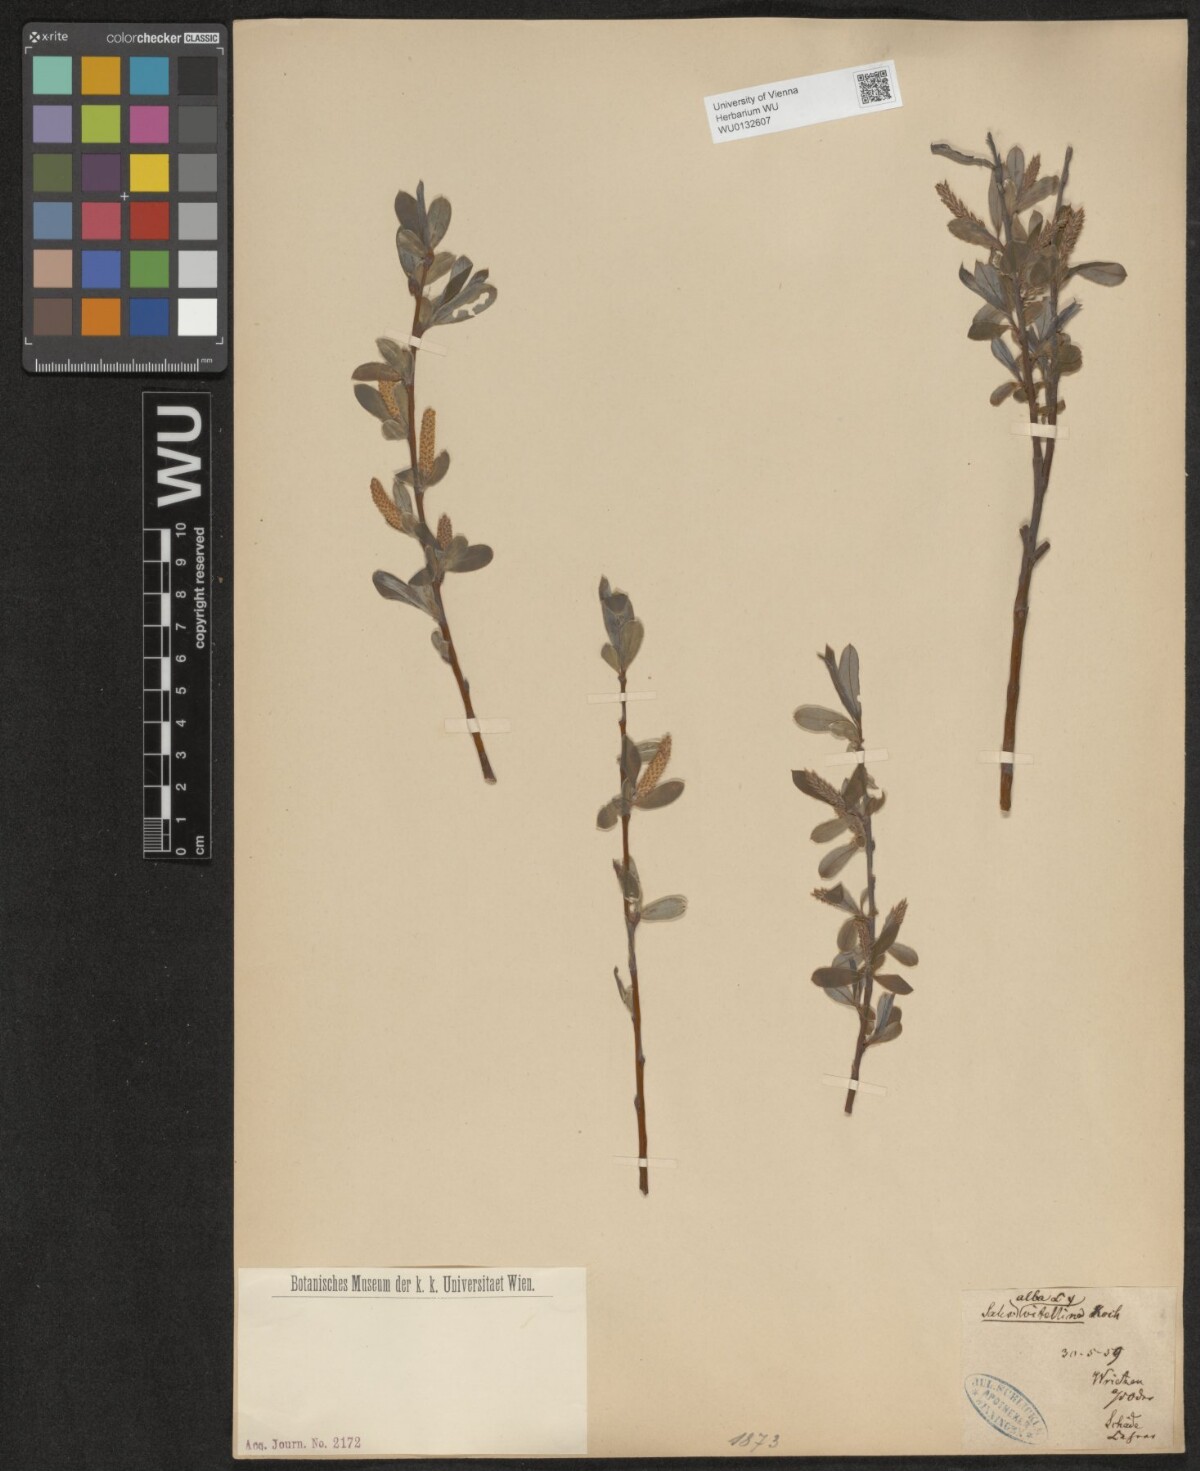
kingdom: Plantae
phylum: Tracheophyta
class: Magnoliopsida
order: Malpighiales
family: Salicaceae
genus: Salix
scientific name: Salix alba
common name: White willow
